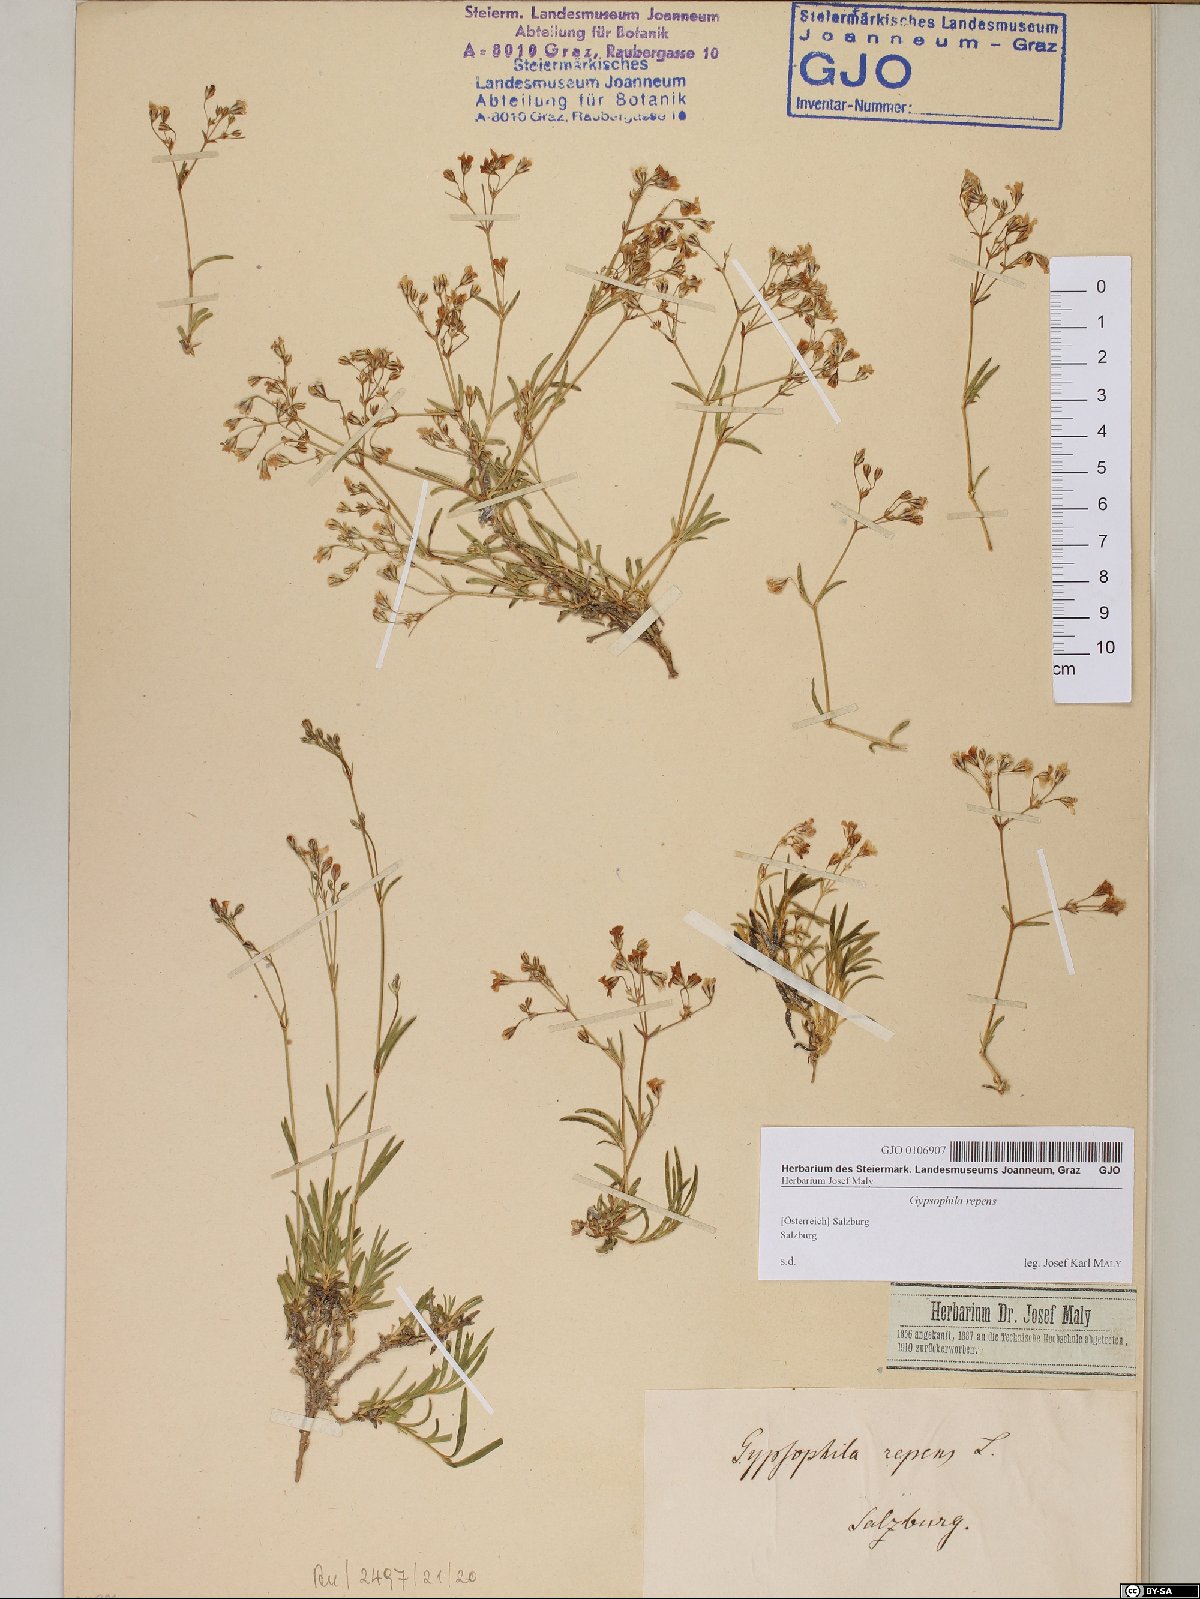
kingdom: Plantae
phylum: Tracheophyta
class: Magnoliopsida
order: Caryophyllales
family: Caryophyllaceae
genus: Gypsophila
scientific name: Gypsophila repens
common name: Creeping baby's-breath
